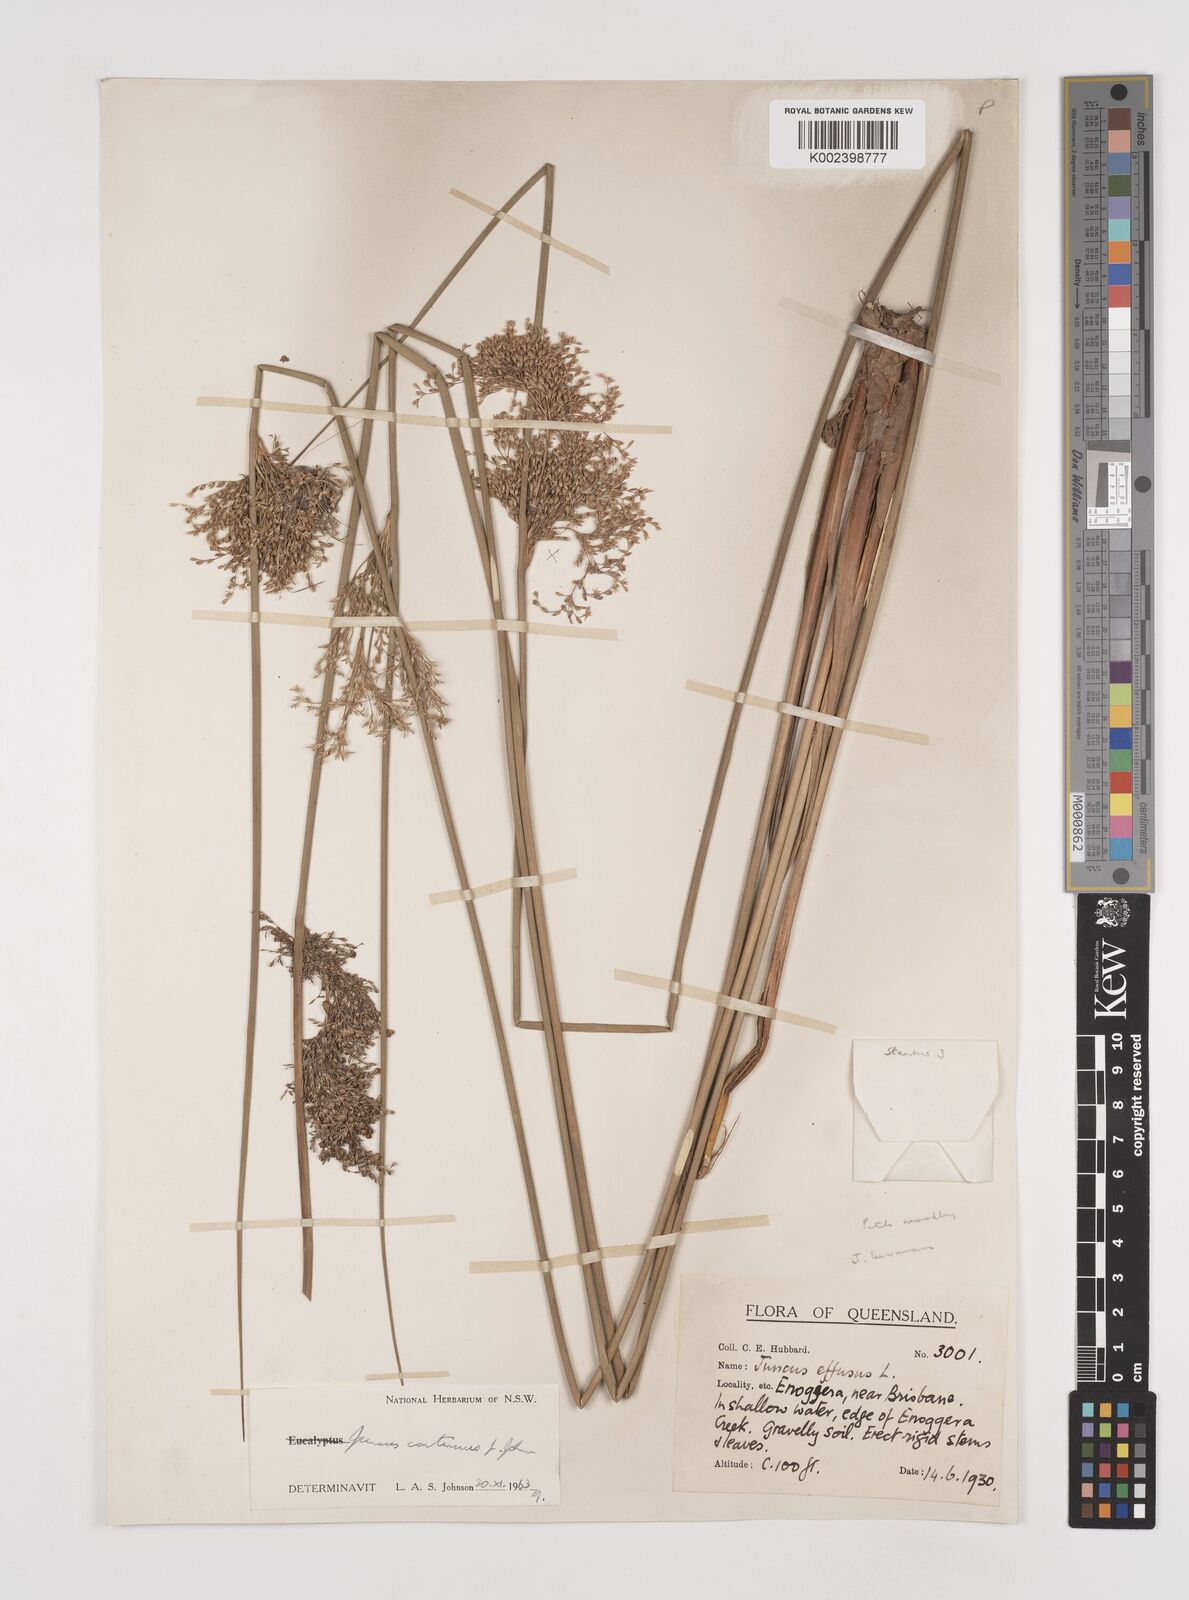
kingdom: Plantae
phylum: Tracheophyta
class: Liliopsida
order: Poales
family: Juncaceae
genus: Juncus
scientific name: Juncus continuus
